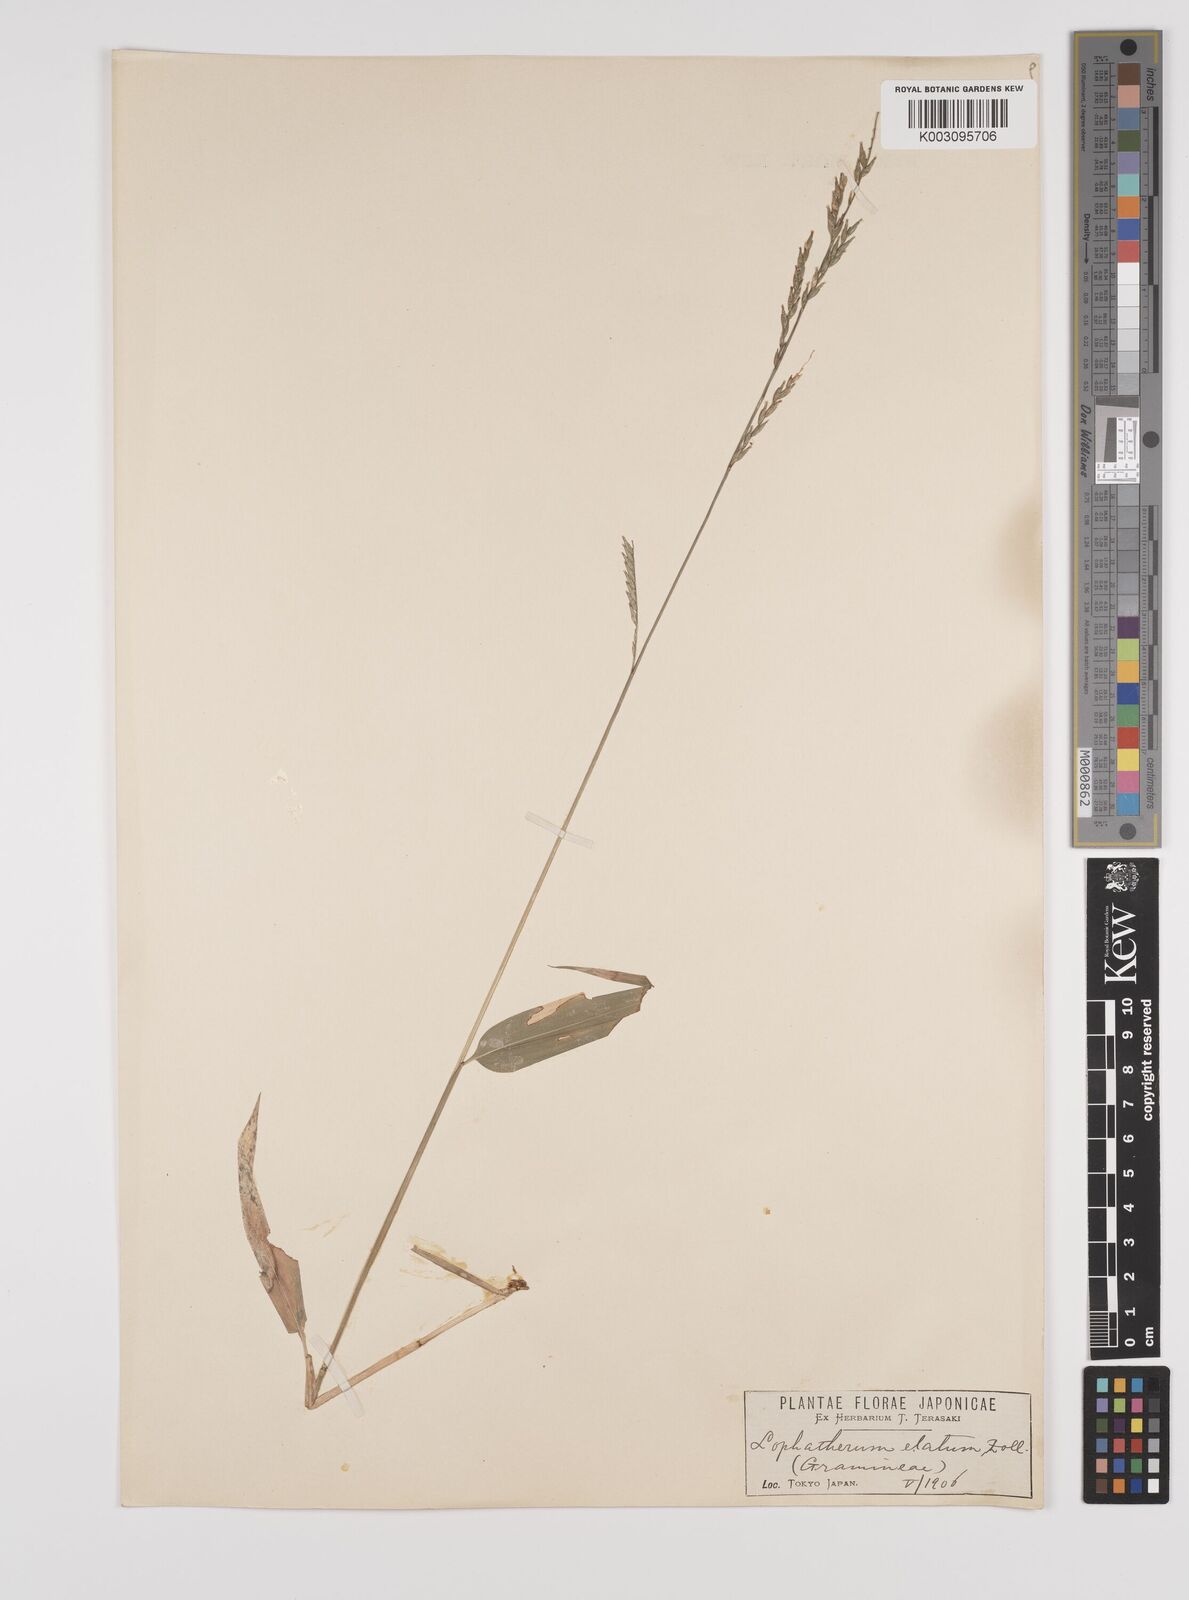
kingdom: Plantae
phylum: Tracheophyta
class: Liliopsida
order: Poales
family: Poaceae
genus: Lophatherum
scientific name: Lophatherum gracile
